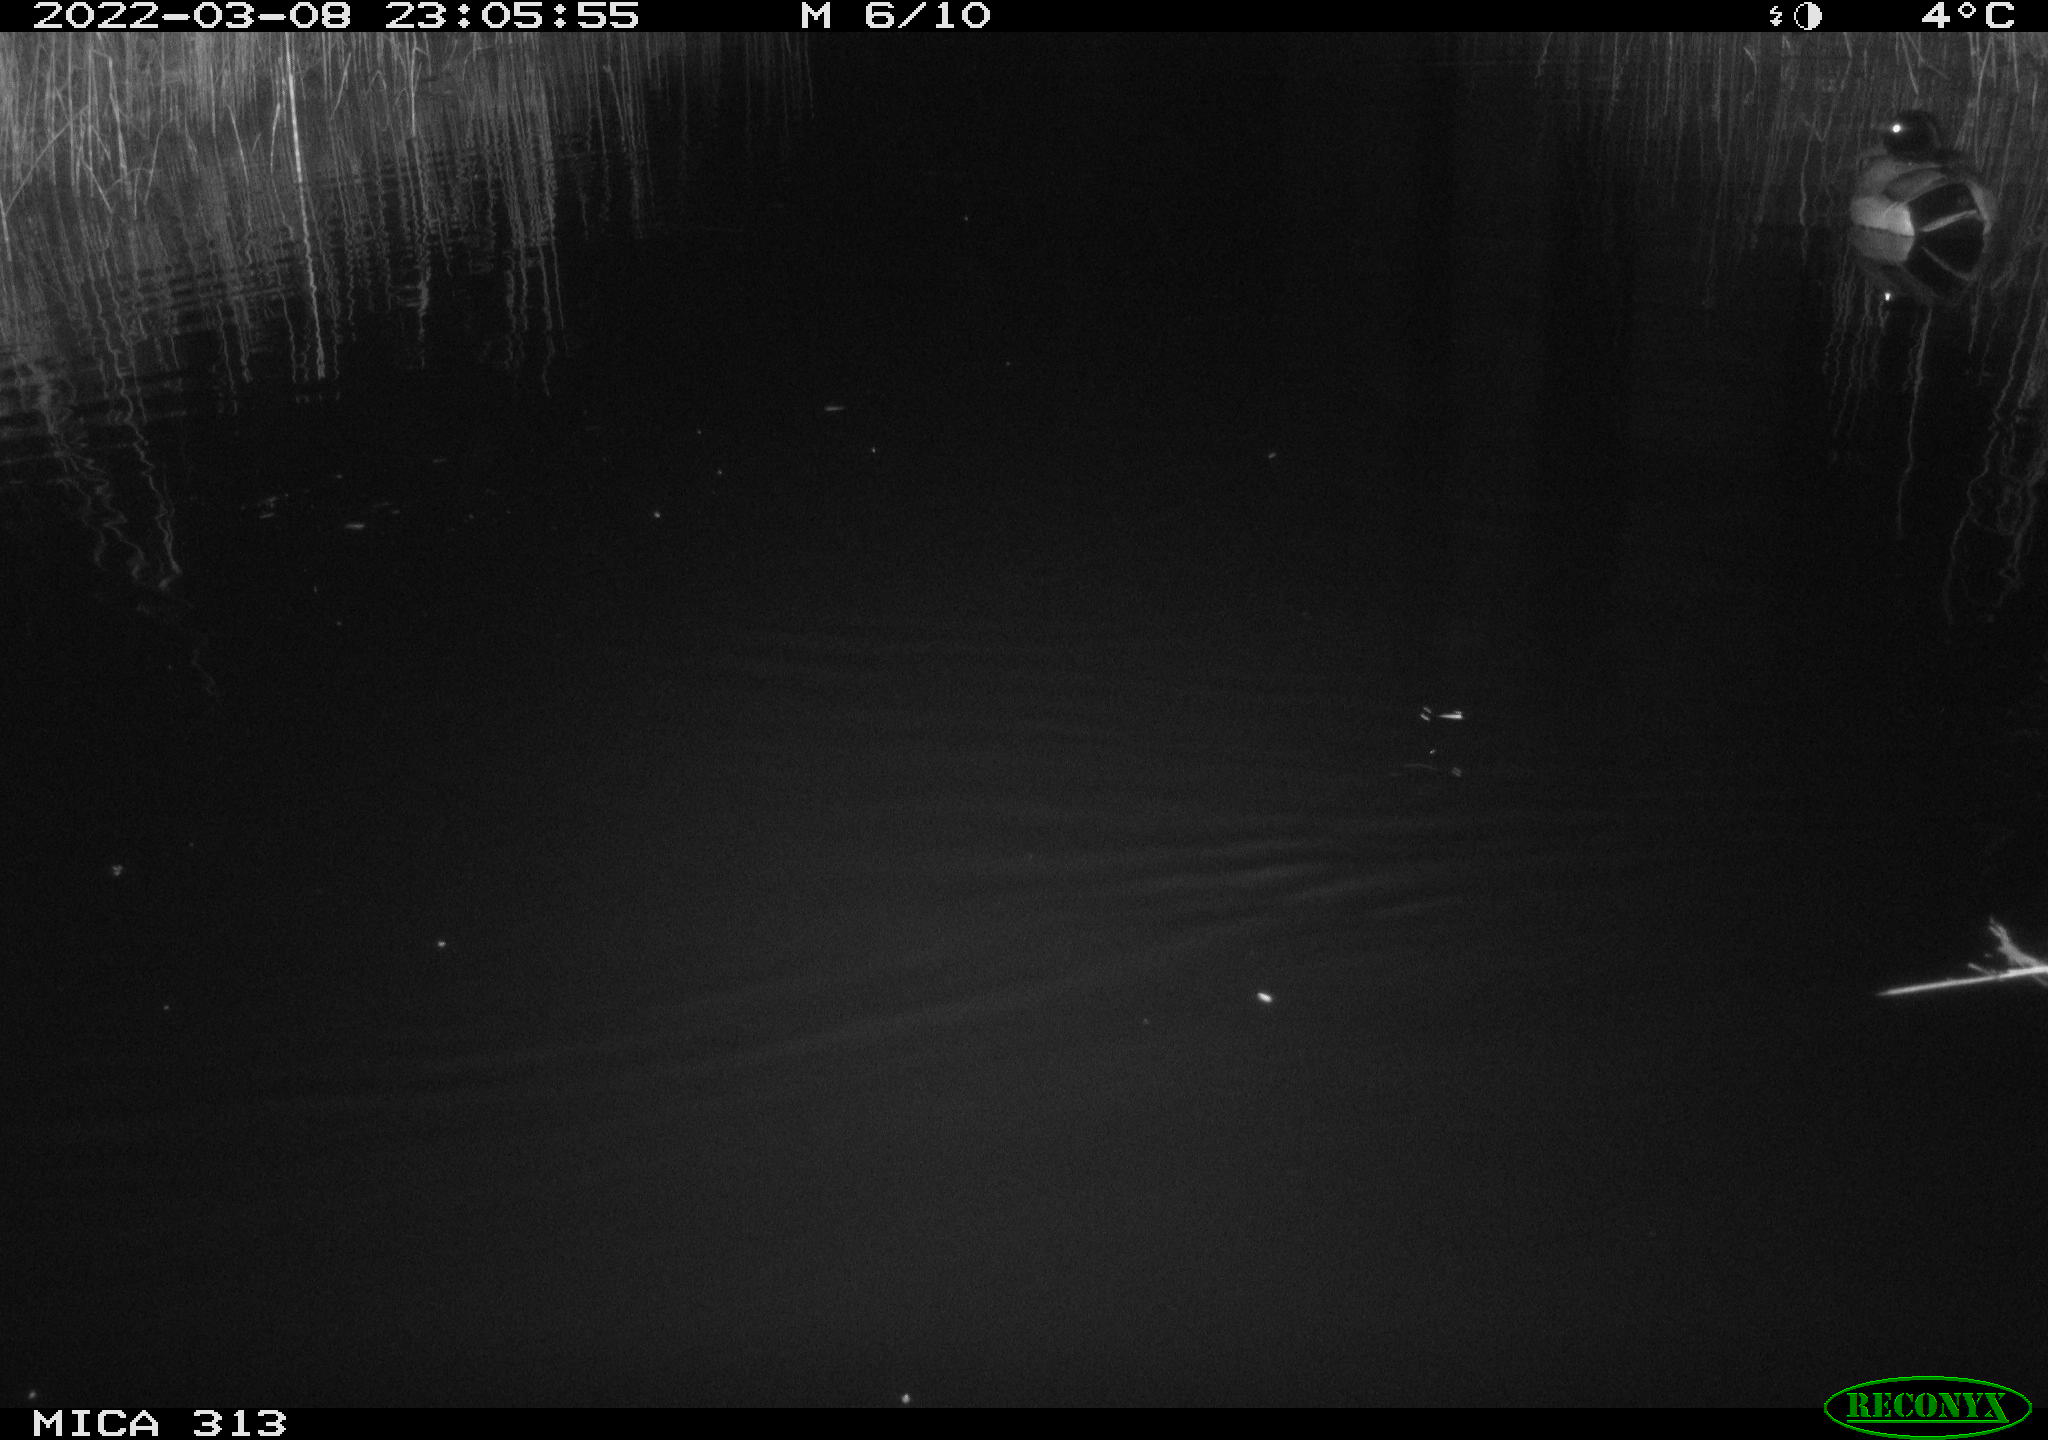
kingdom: Animalia
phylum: Chordata
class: Aves
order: Anseriformes
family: Anatidae
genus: Anas
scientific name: Anas platyrhynchos
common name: Mallard
